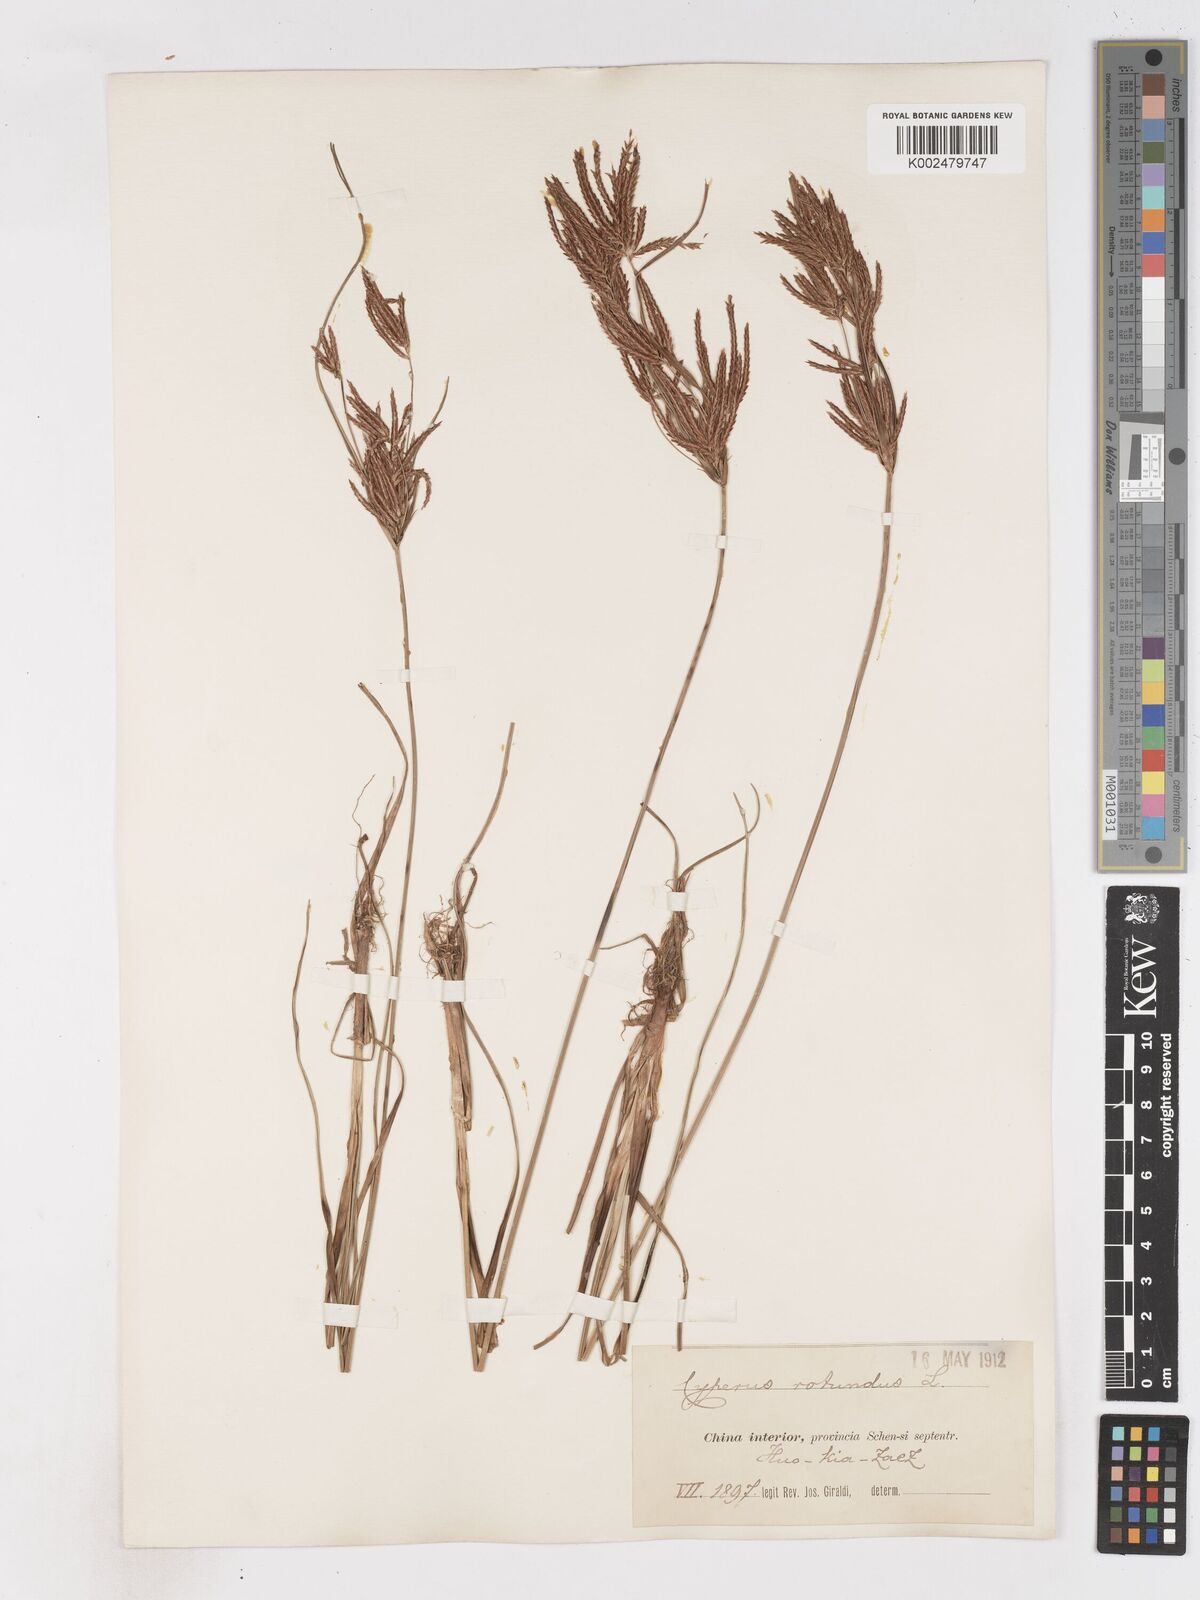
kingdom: Plantae
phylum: Tracheophyta
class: Liliopsida
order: Poales
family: Cyperaceae
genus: Cyperus
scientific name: Cyperus rotundus
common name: Nutgrass
